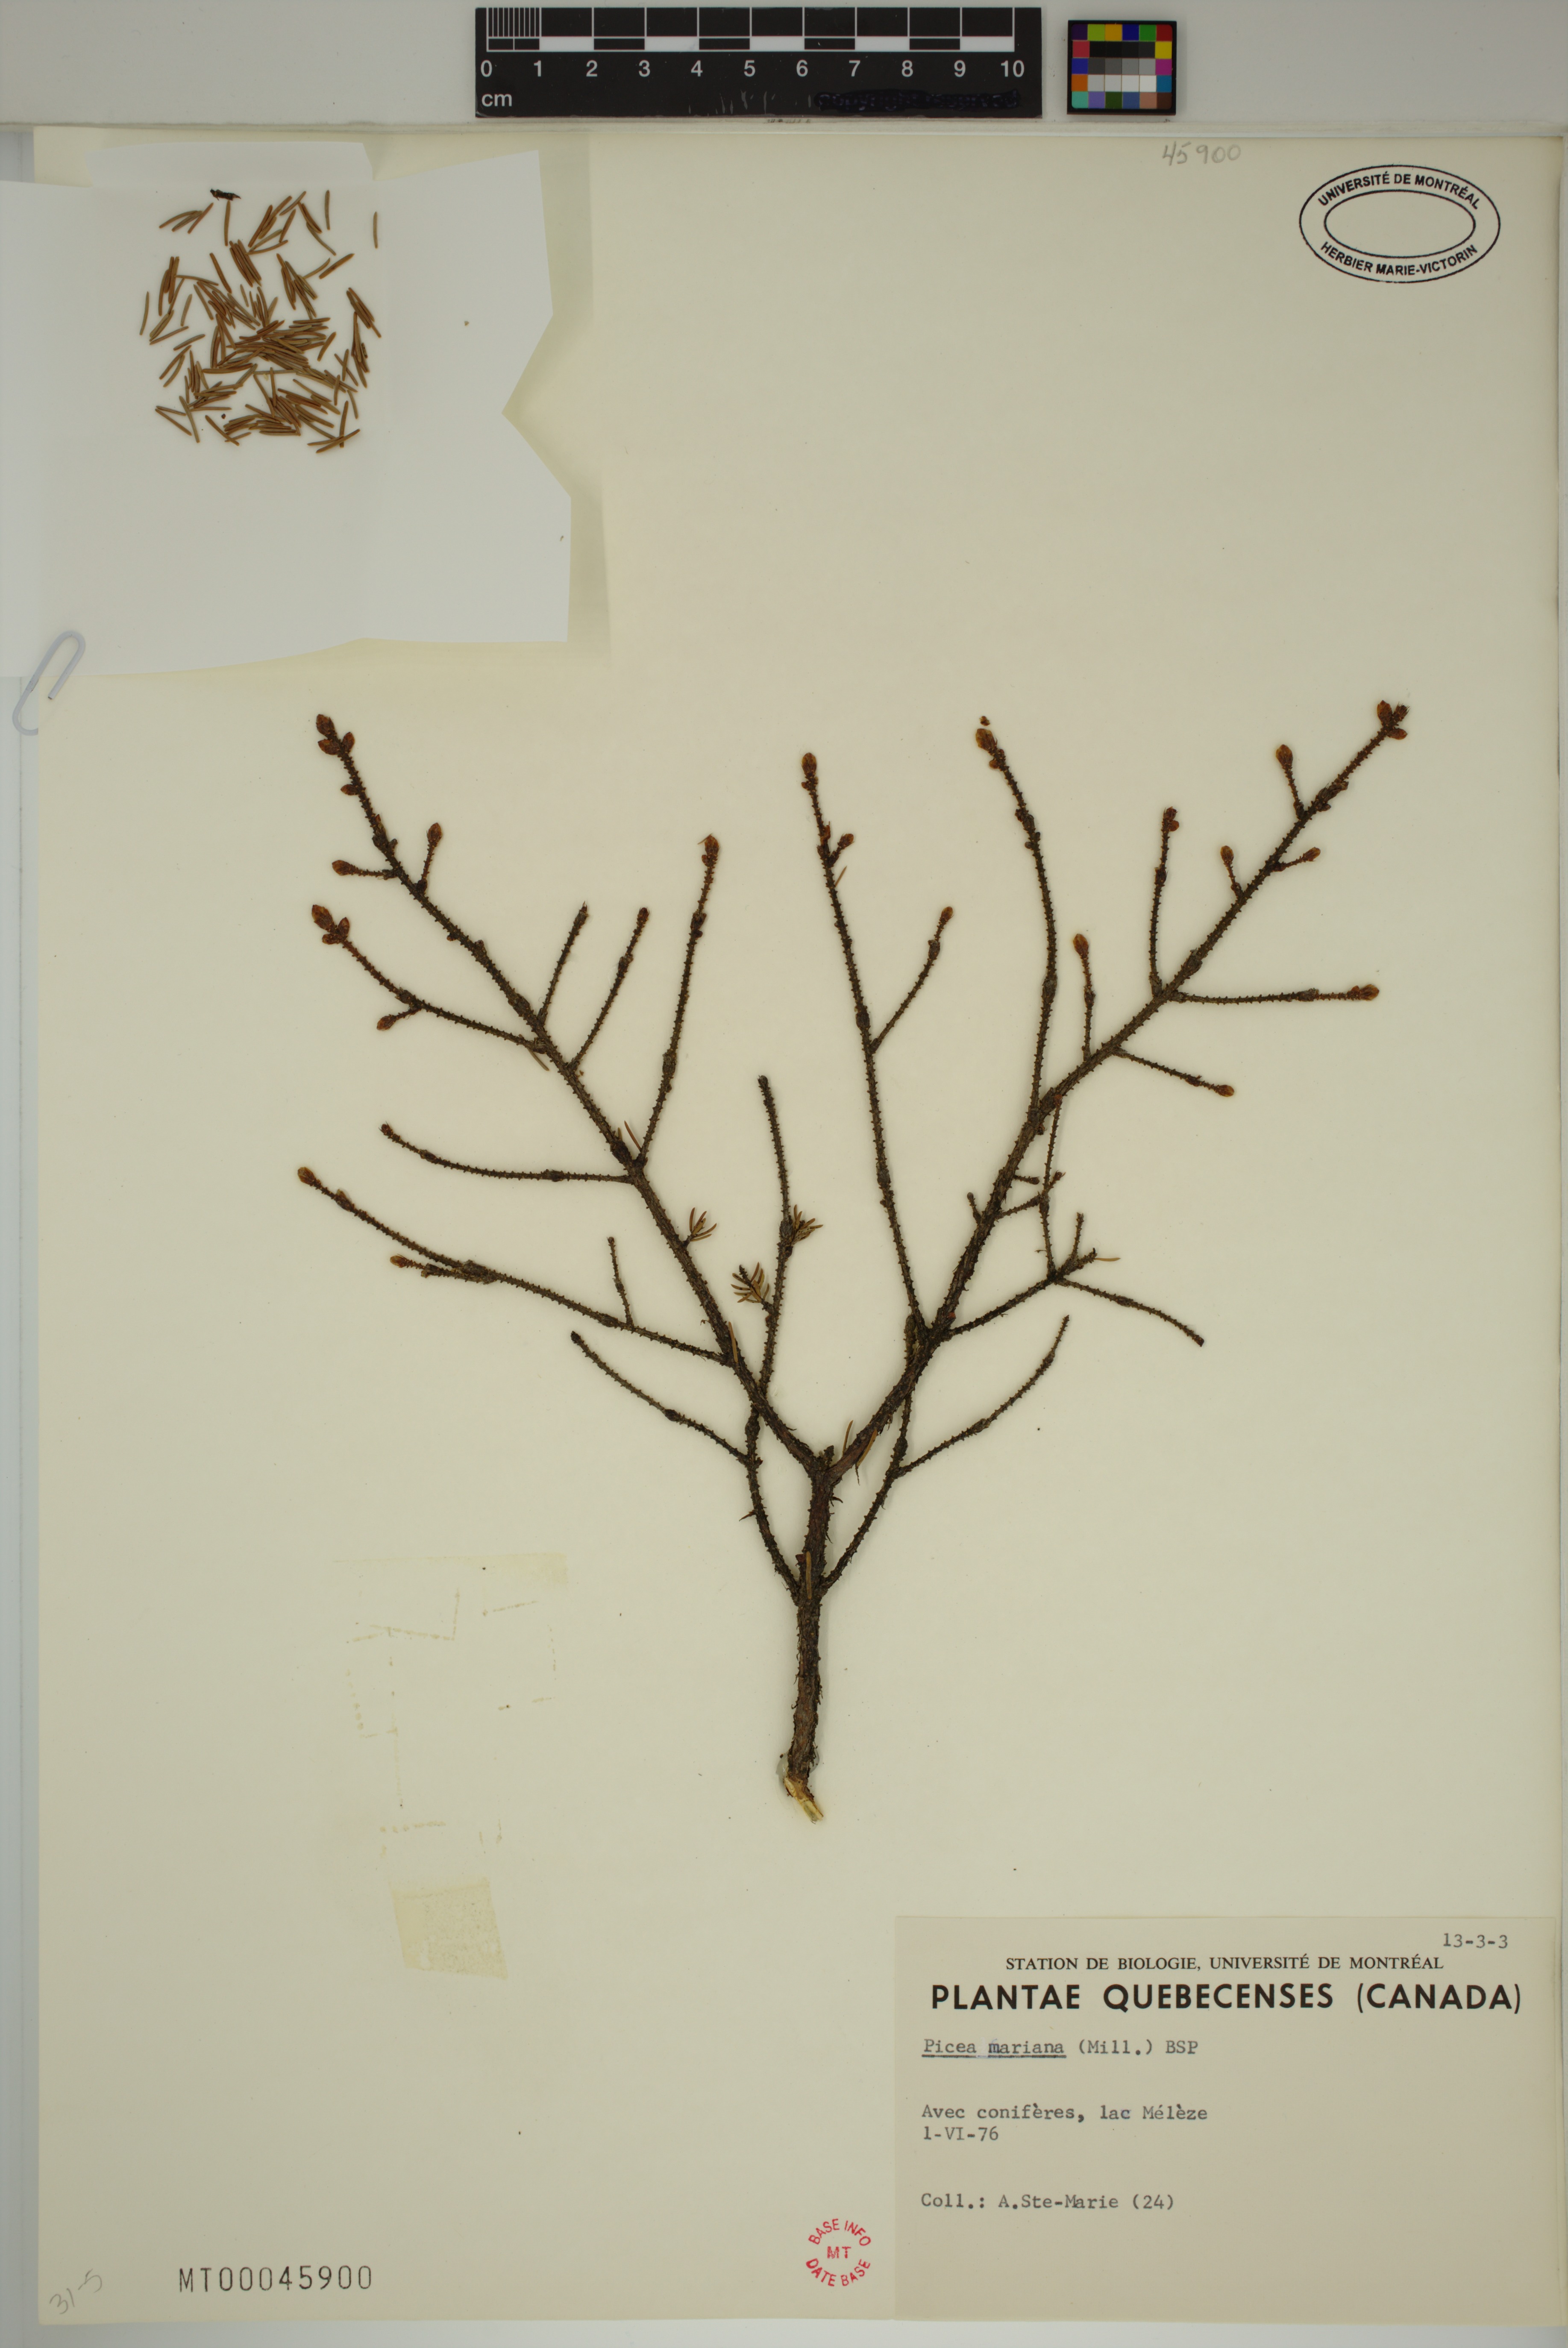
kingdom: Plantae
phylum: Tracheophyta
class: Pinopsida
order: Pinales
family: Pinaceae
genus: Picea
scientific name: Picea mariana
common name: Black spruce
